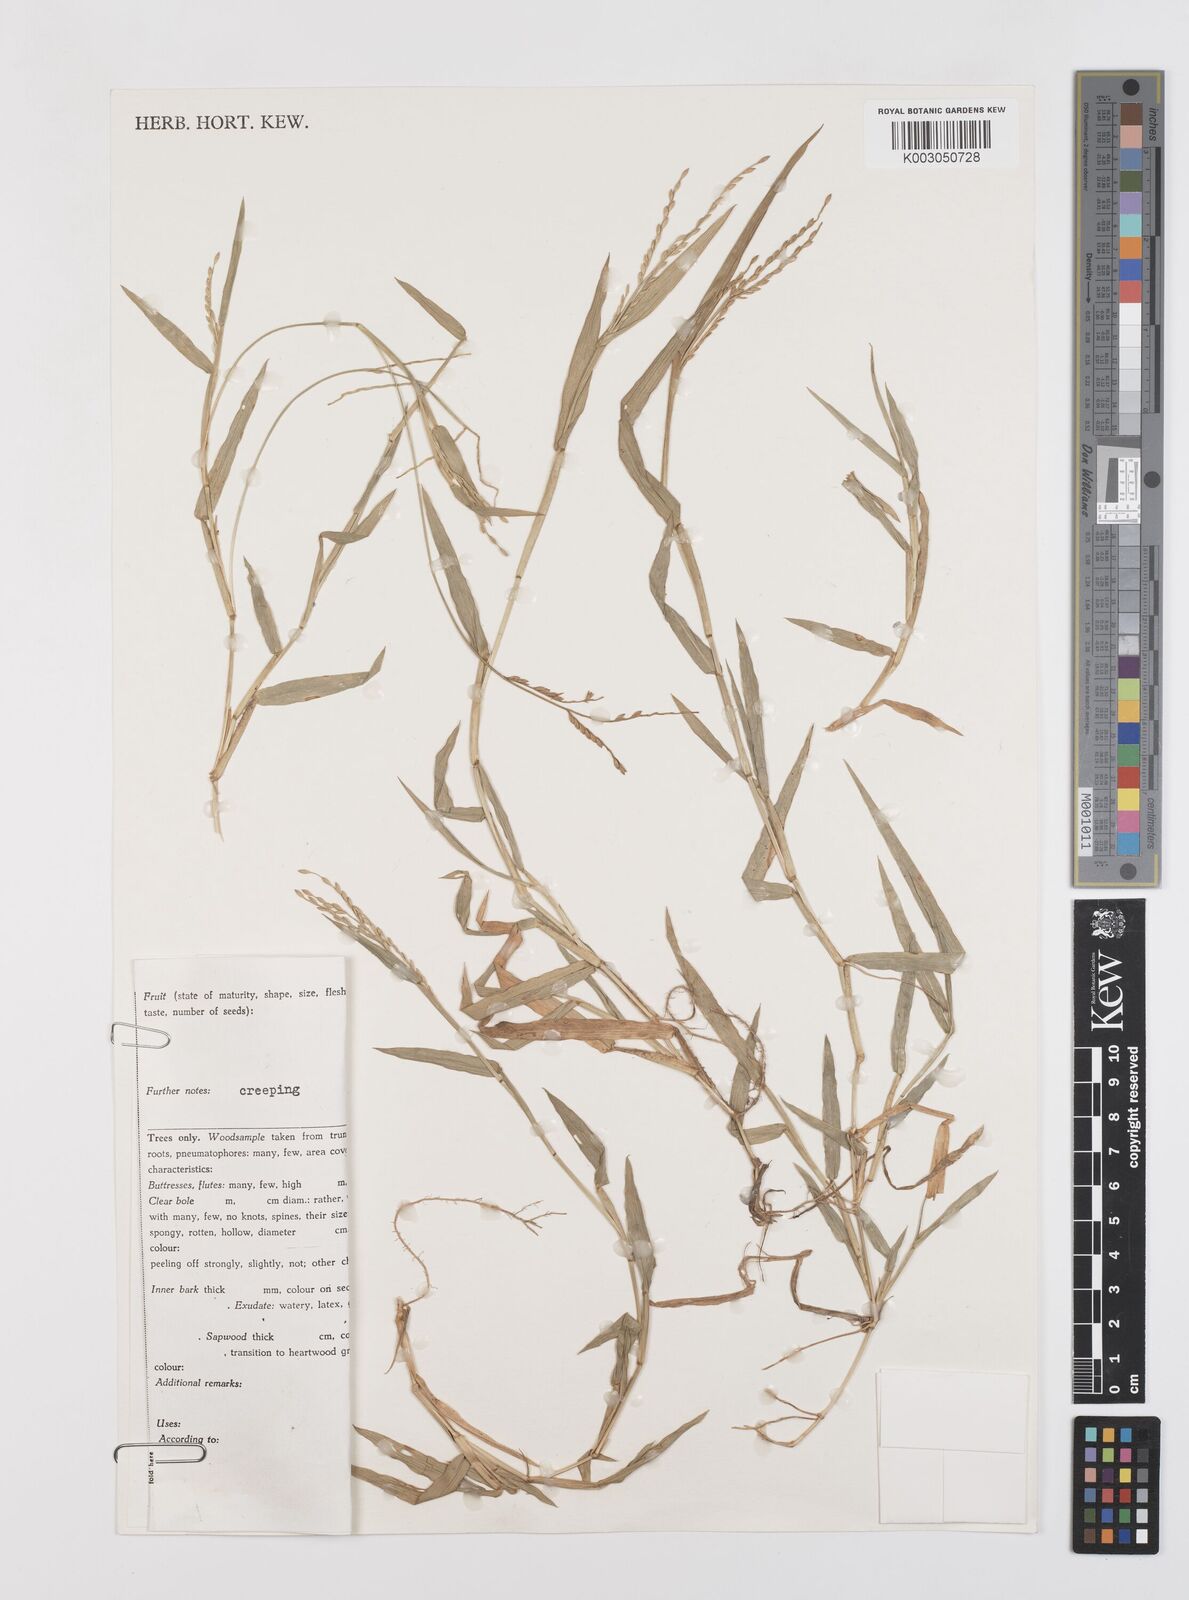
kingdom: Plantae
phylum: Tracheophyta
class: Liliopsida
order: Poales
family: Poaceae
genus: Urochloa
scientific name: Urochloa subquadripara
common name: Armgrass millet
